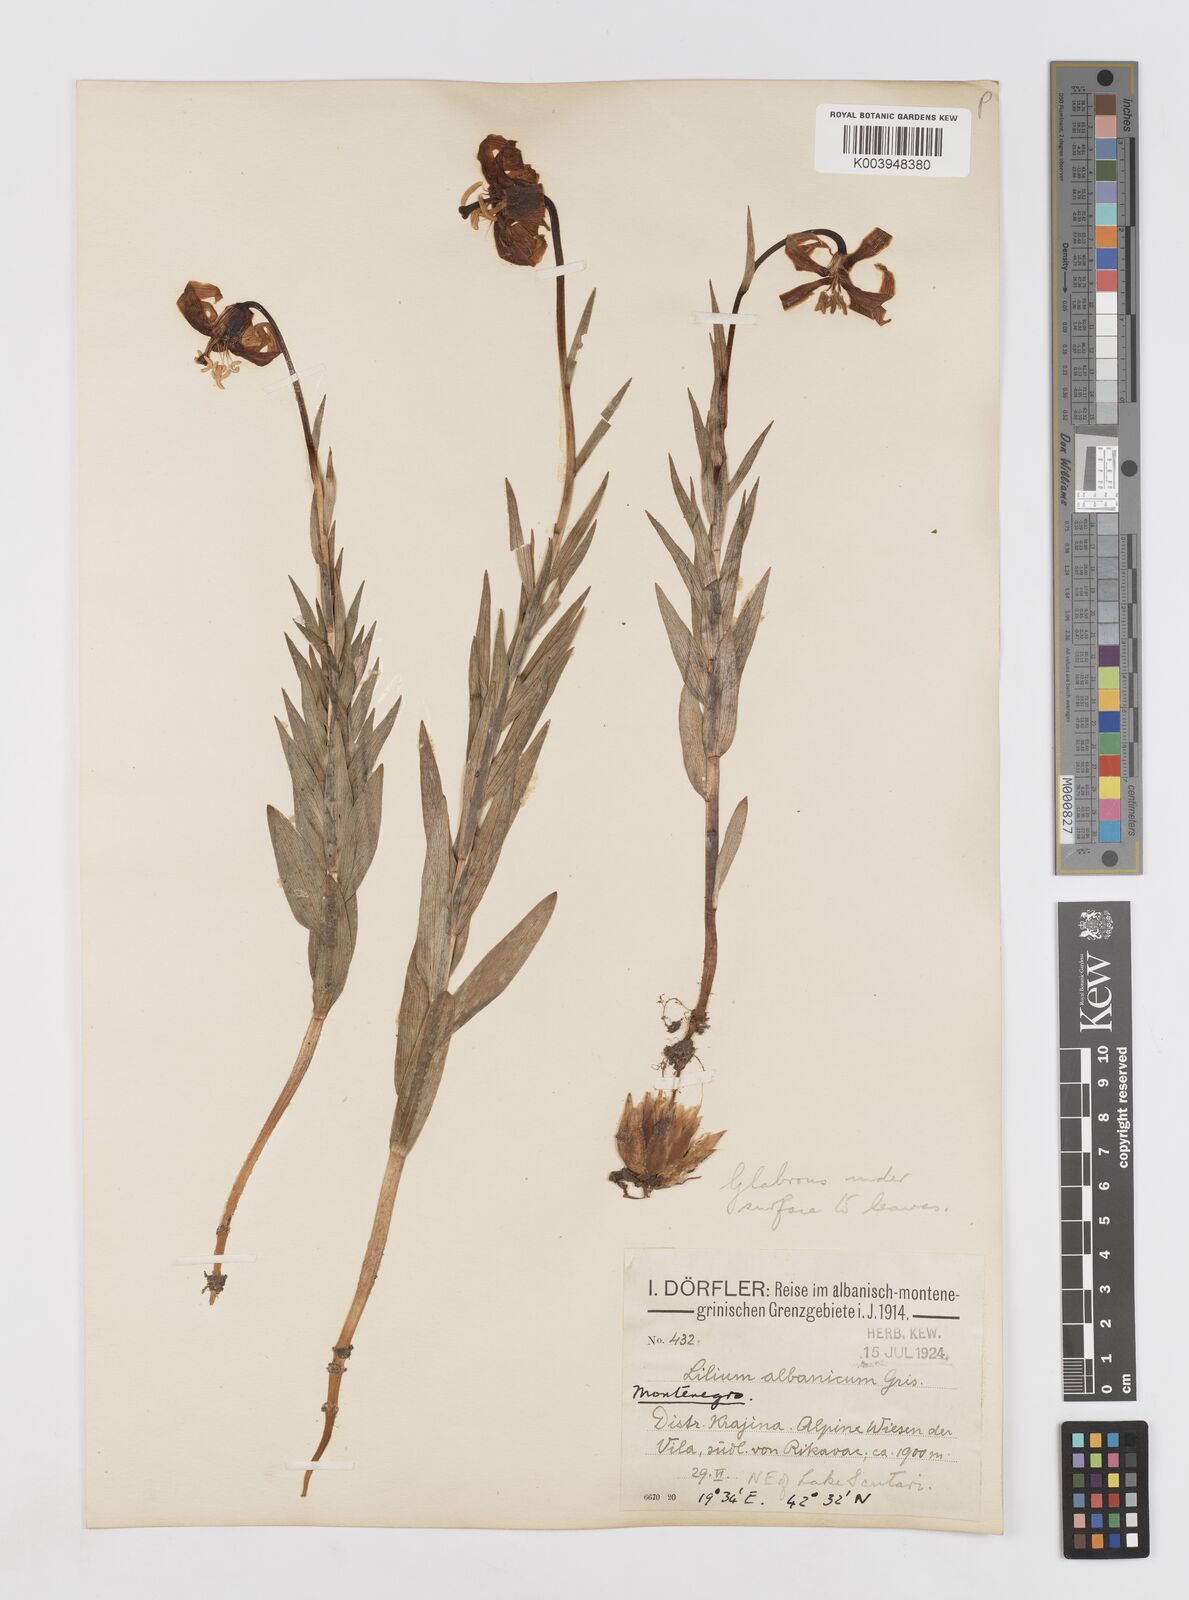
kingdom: Plantae
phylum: Tracheophyta
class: Liliopsida
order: Liliales
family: Liliaceae
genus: Lilium
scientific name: Lilium
